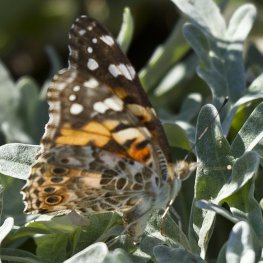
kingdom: Animalia
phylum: Arthropoda
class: Insecta
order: Lepidoptera
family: Nymphalidae
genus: Vanessa
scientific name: Vanessa cardui
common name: Painted Lady
